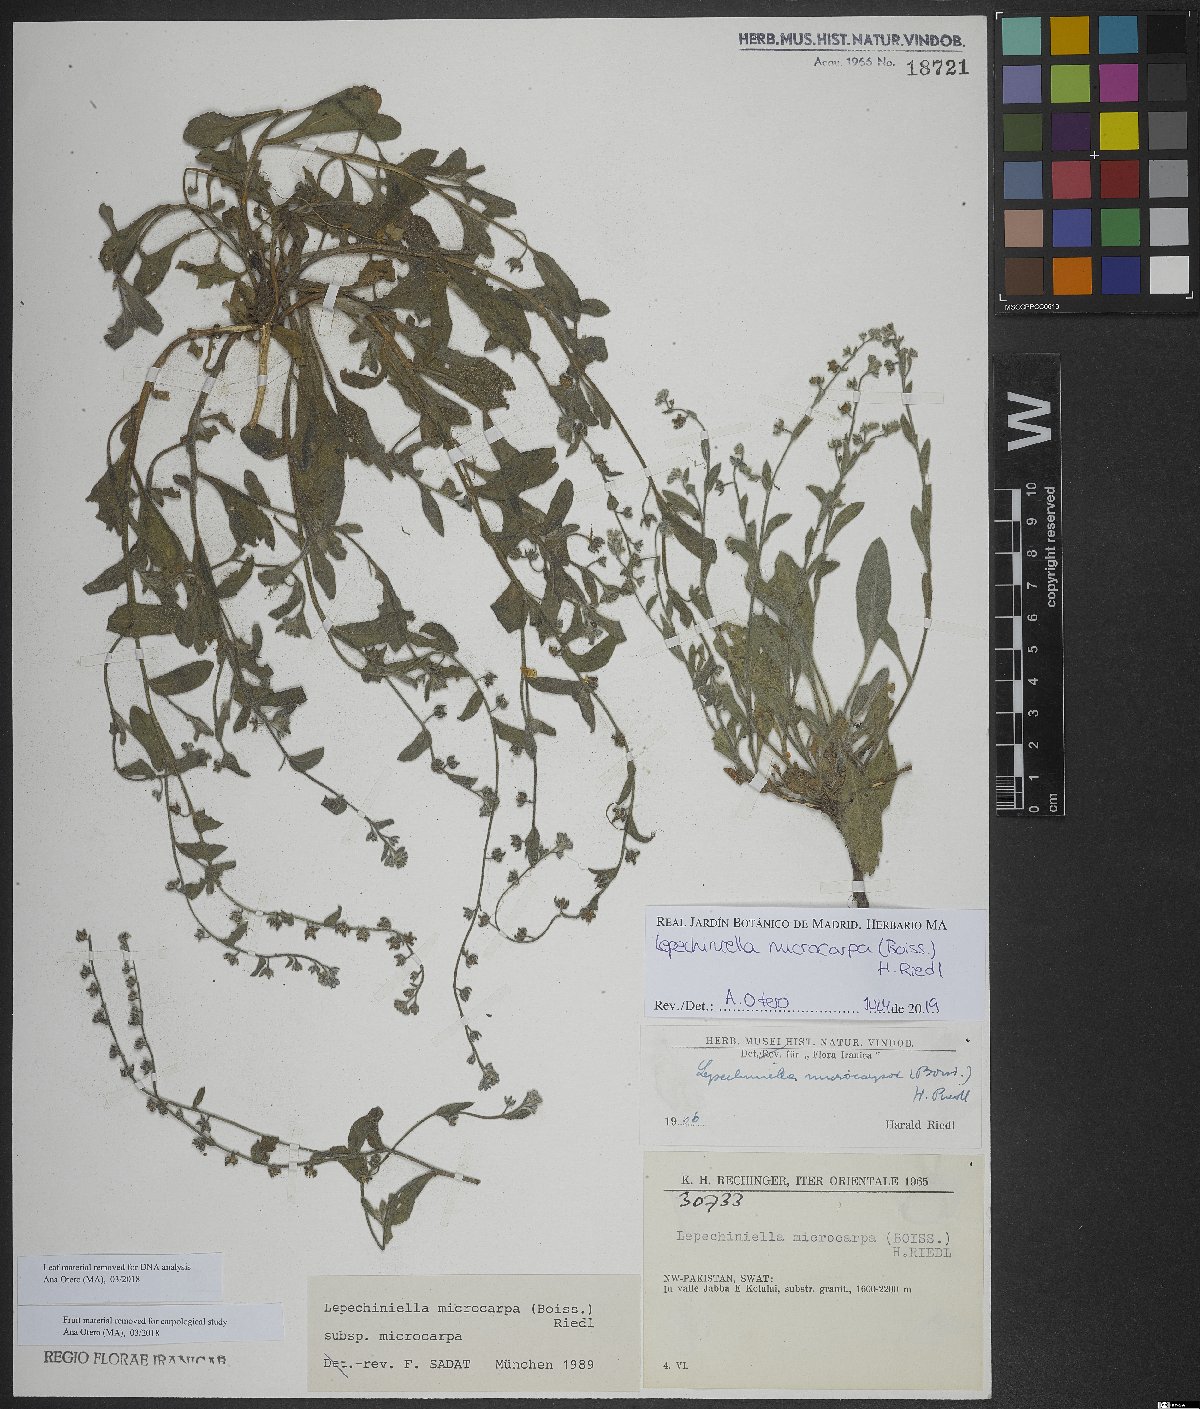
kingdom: Plantae
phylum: Tracheophyta
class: Magnoliopsida
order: Boraginales
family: Boraginaceae
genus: Lepechiniella
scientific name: Lepechiniella microcarpa
